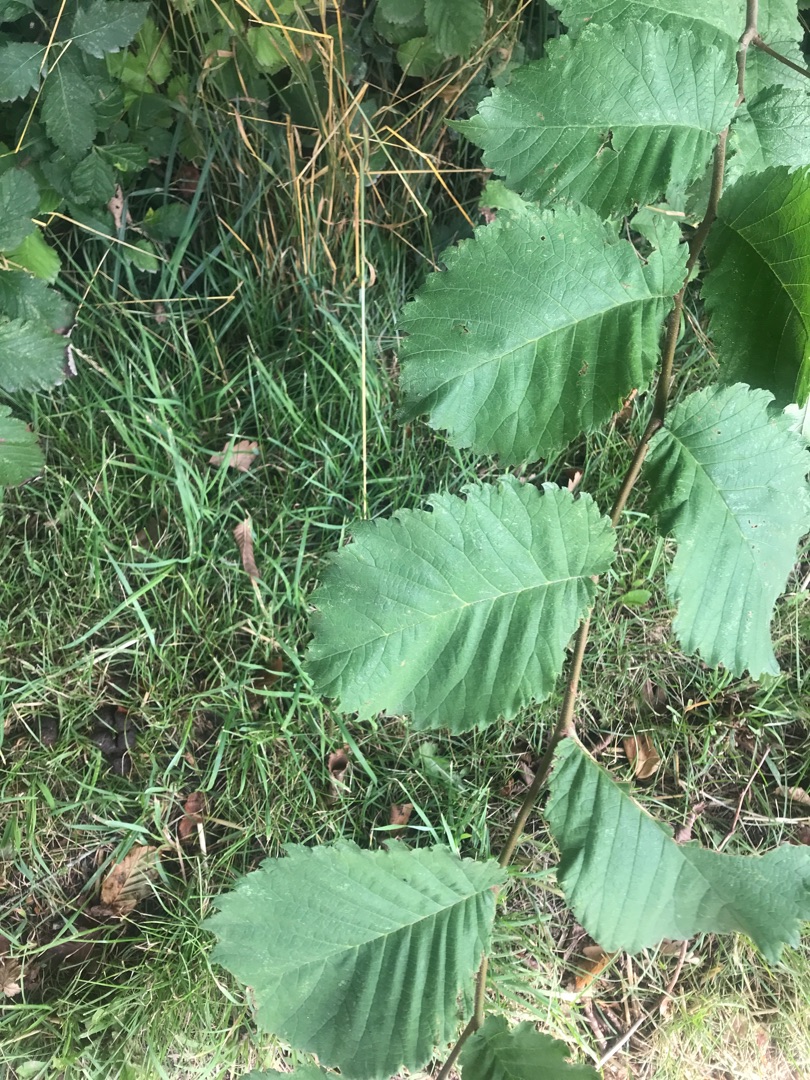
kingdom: Plantae
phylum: Tracheophyta
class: Magnoliopsida
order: Rosales
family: Ulmaceae
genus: Ulmus
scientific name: Ulmus glabra
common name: Skov-elm/storbladet elm
